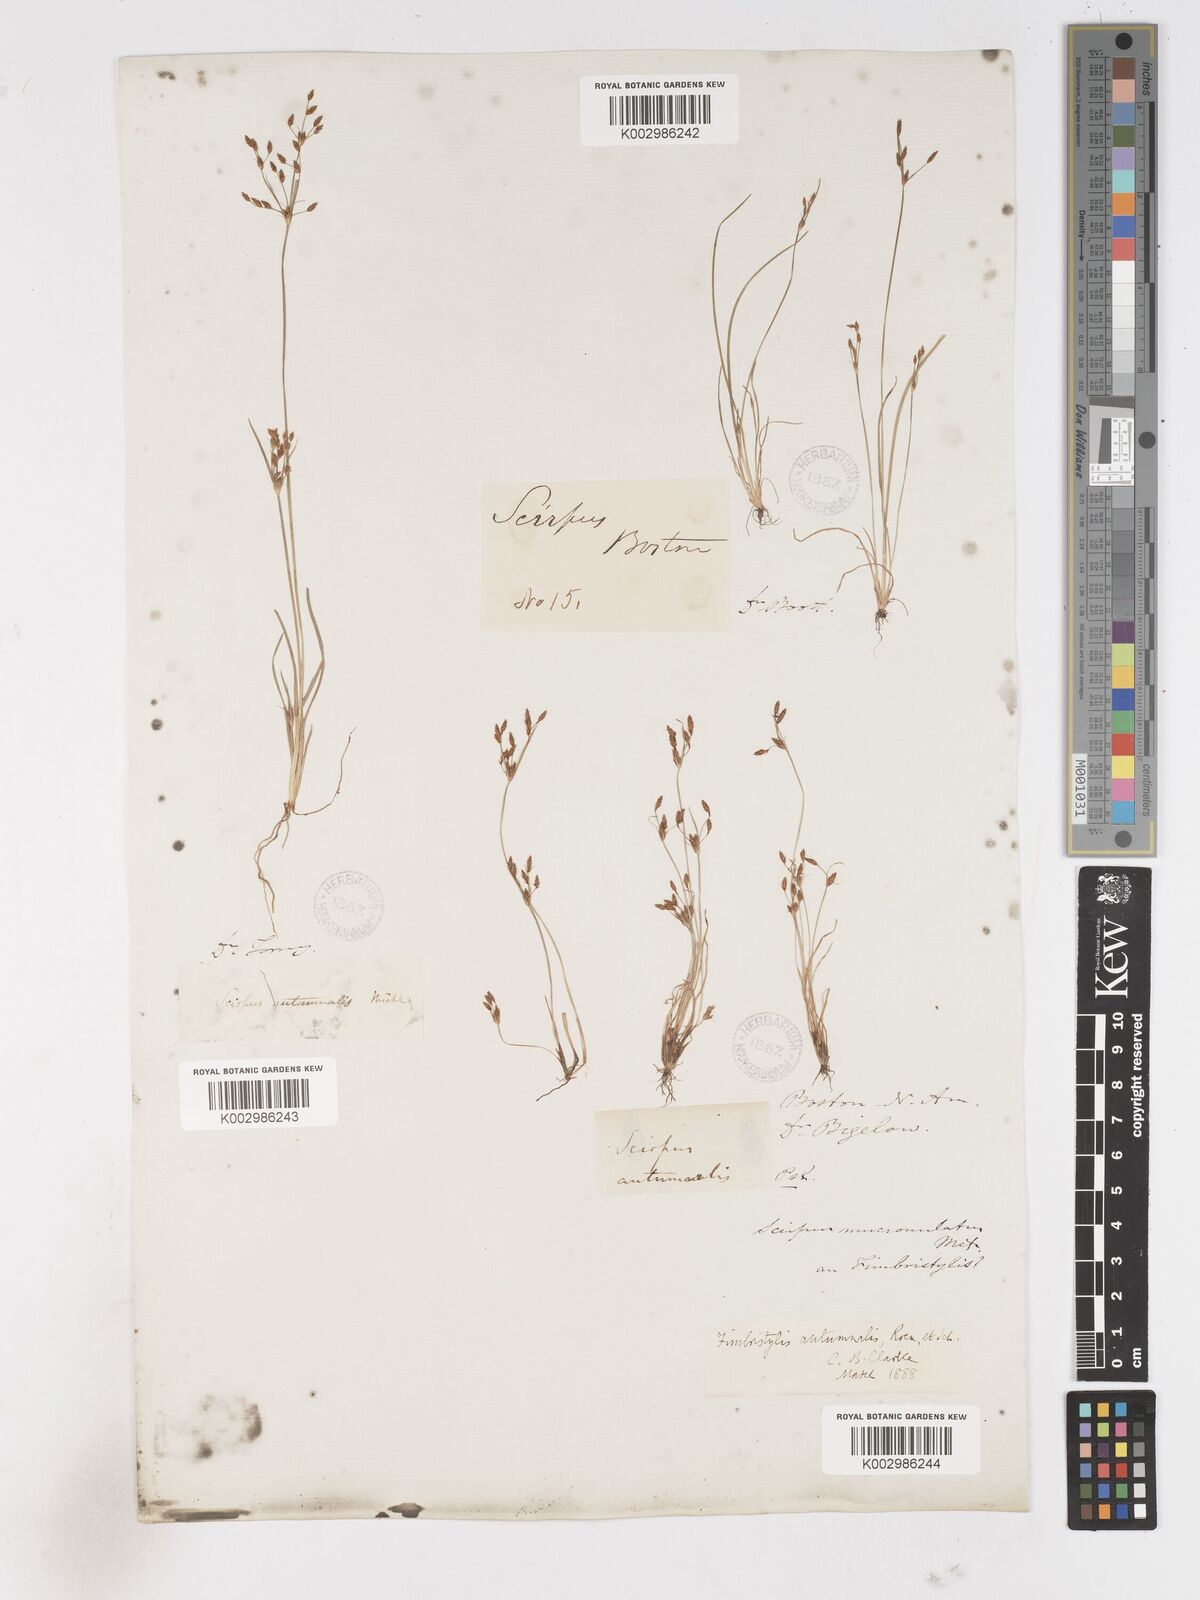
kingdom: Plantae
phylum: Tracheophyta
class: Liliopsida
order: Poales
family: Cyperaceae
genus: Fimbristylis
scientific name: Fimbristylis autumnalis
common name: Slender fimbristylis
